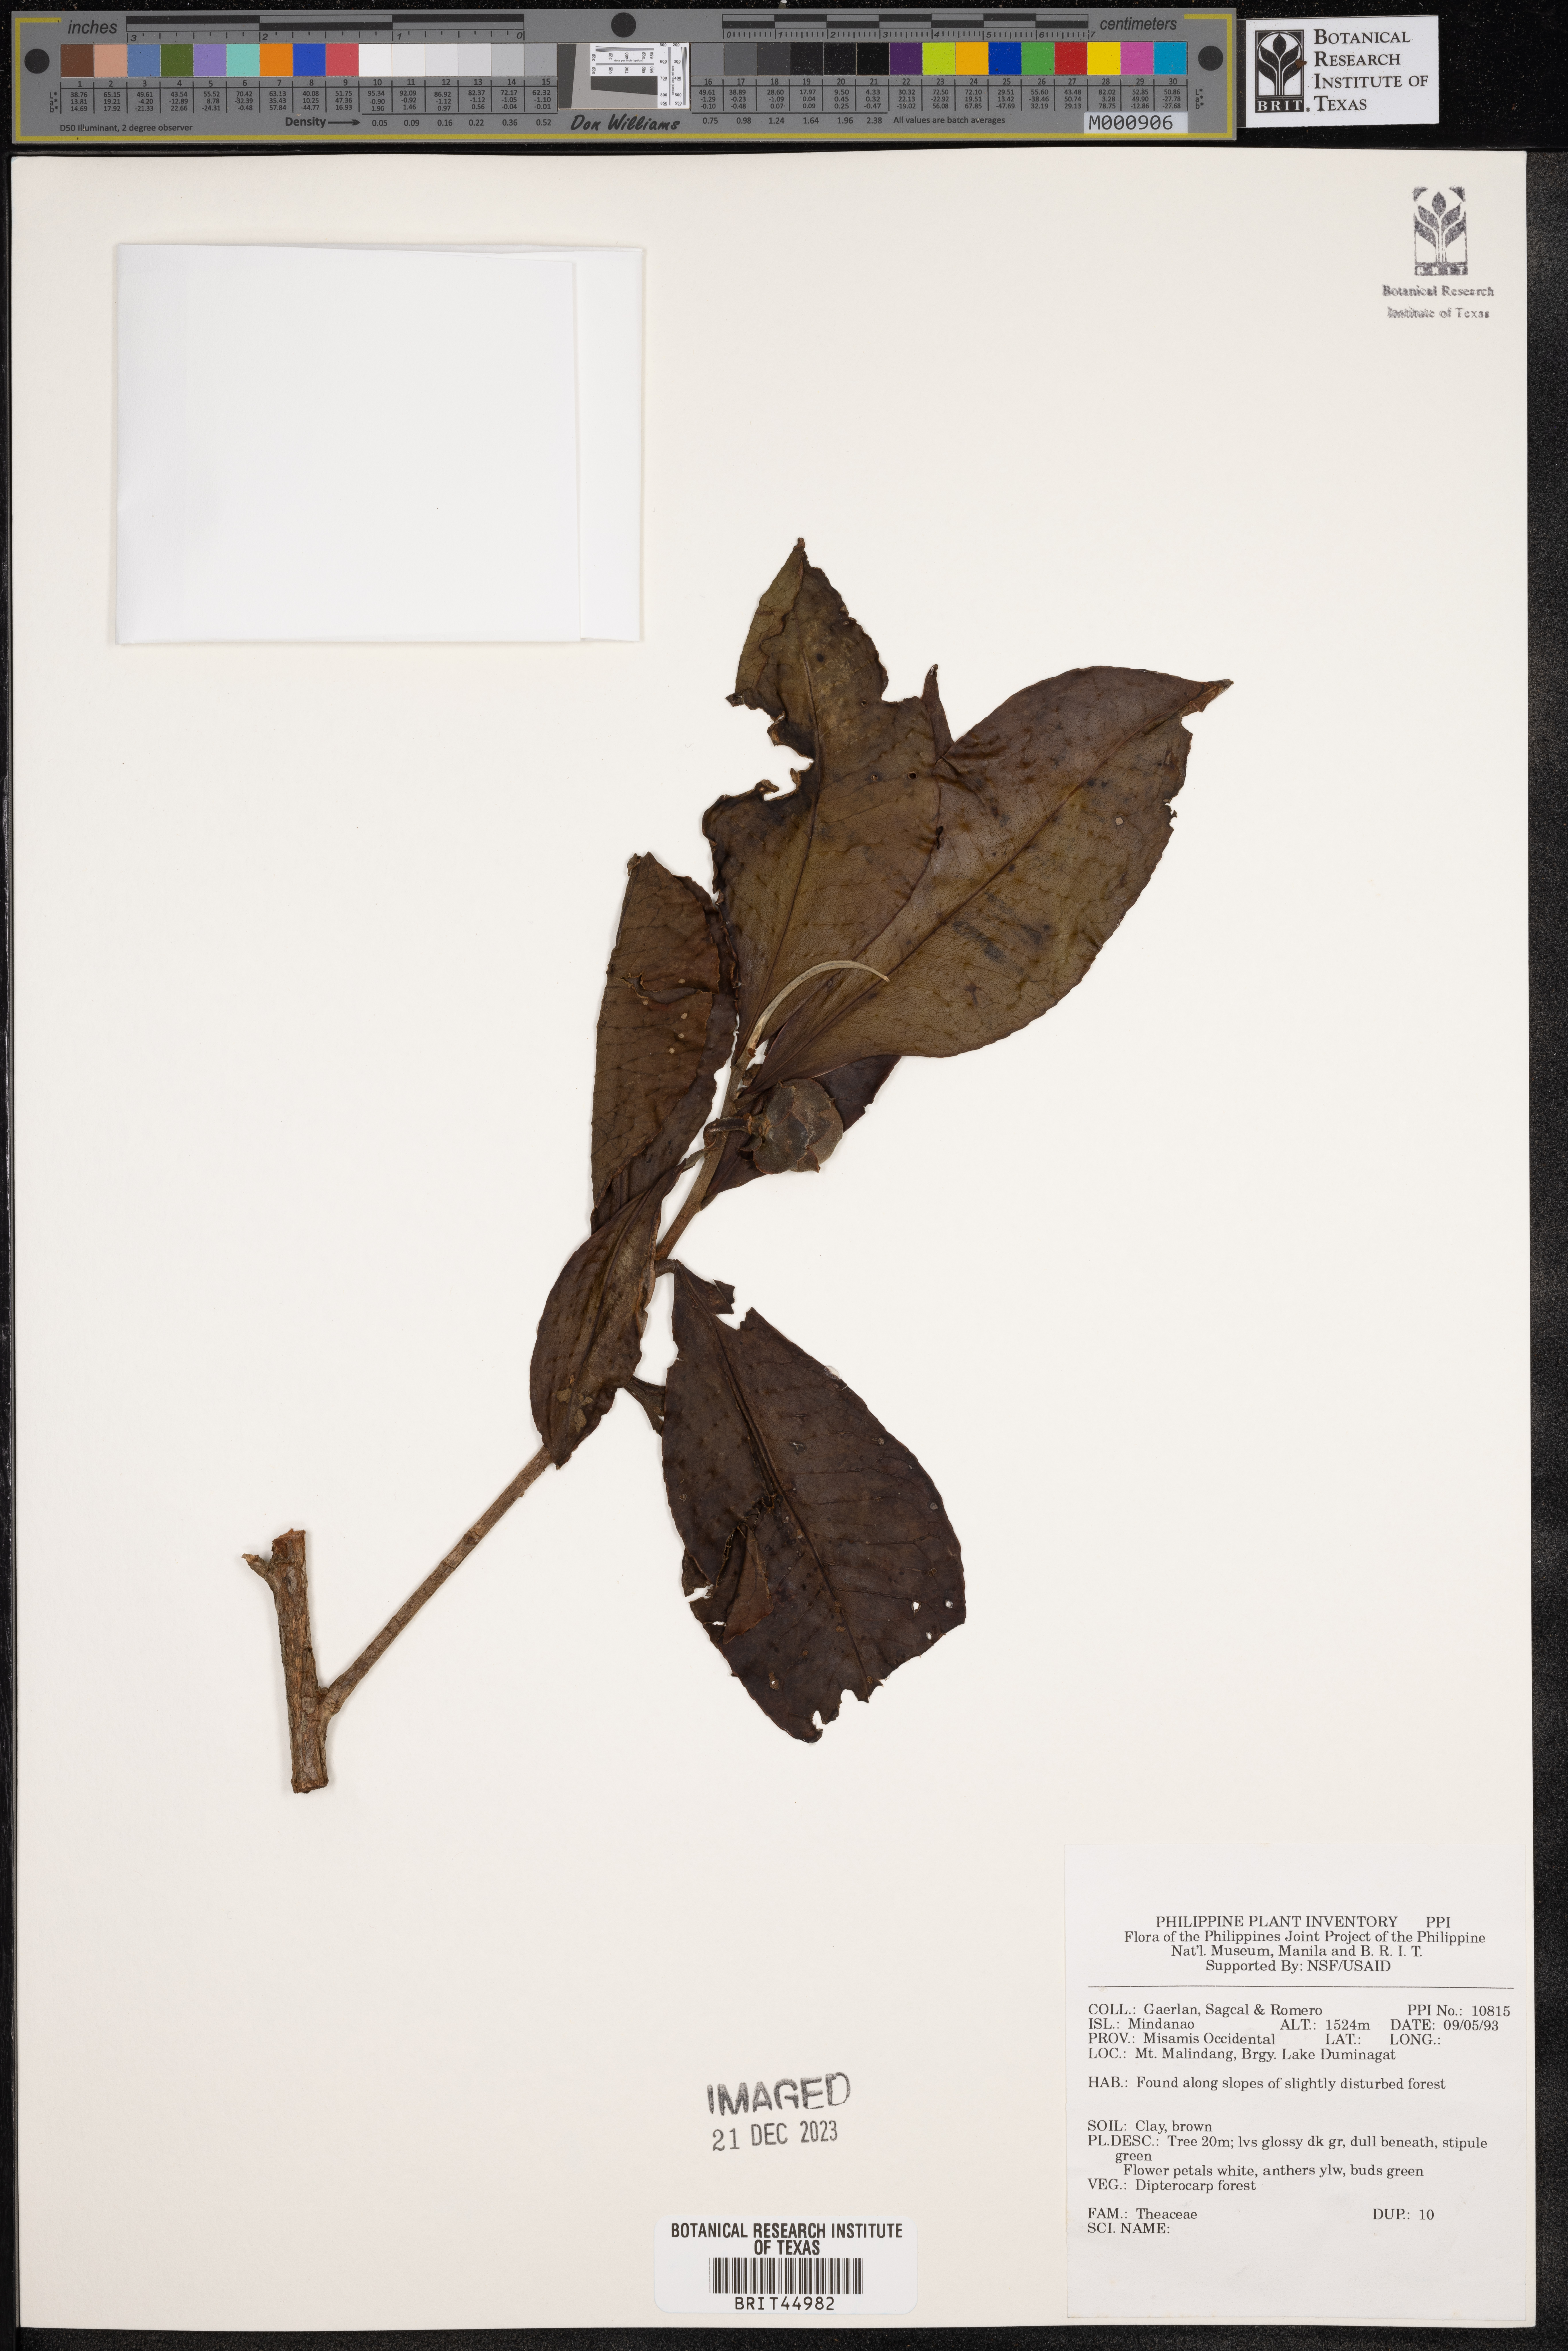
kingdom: Plantae
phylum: Tracheophyta
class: Magnoliopsida
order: Ericales
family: Theaceae
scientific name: Theaceae
